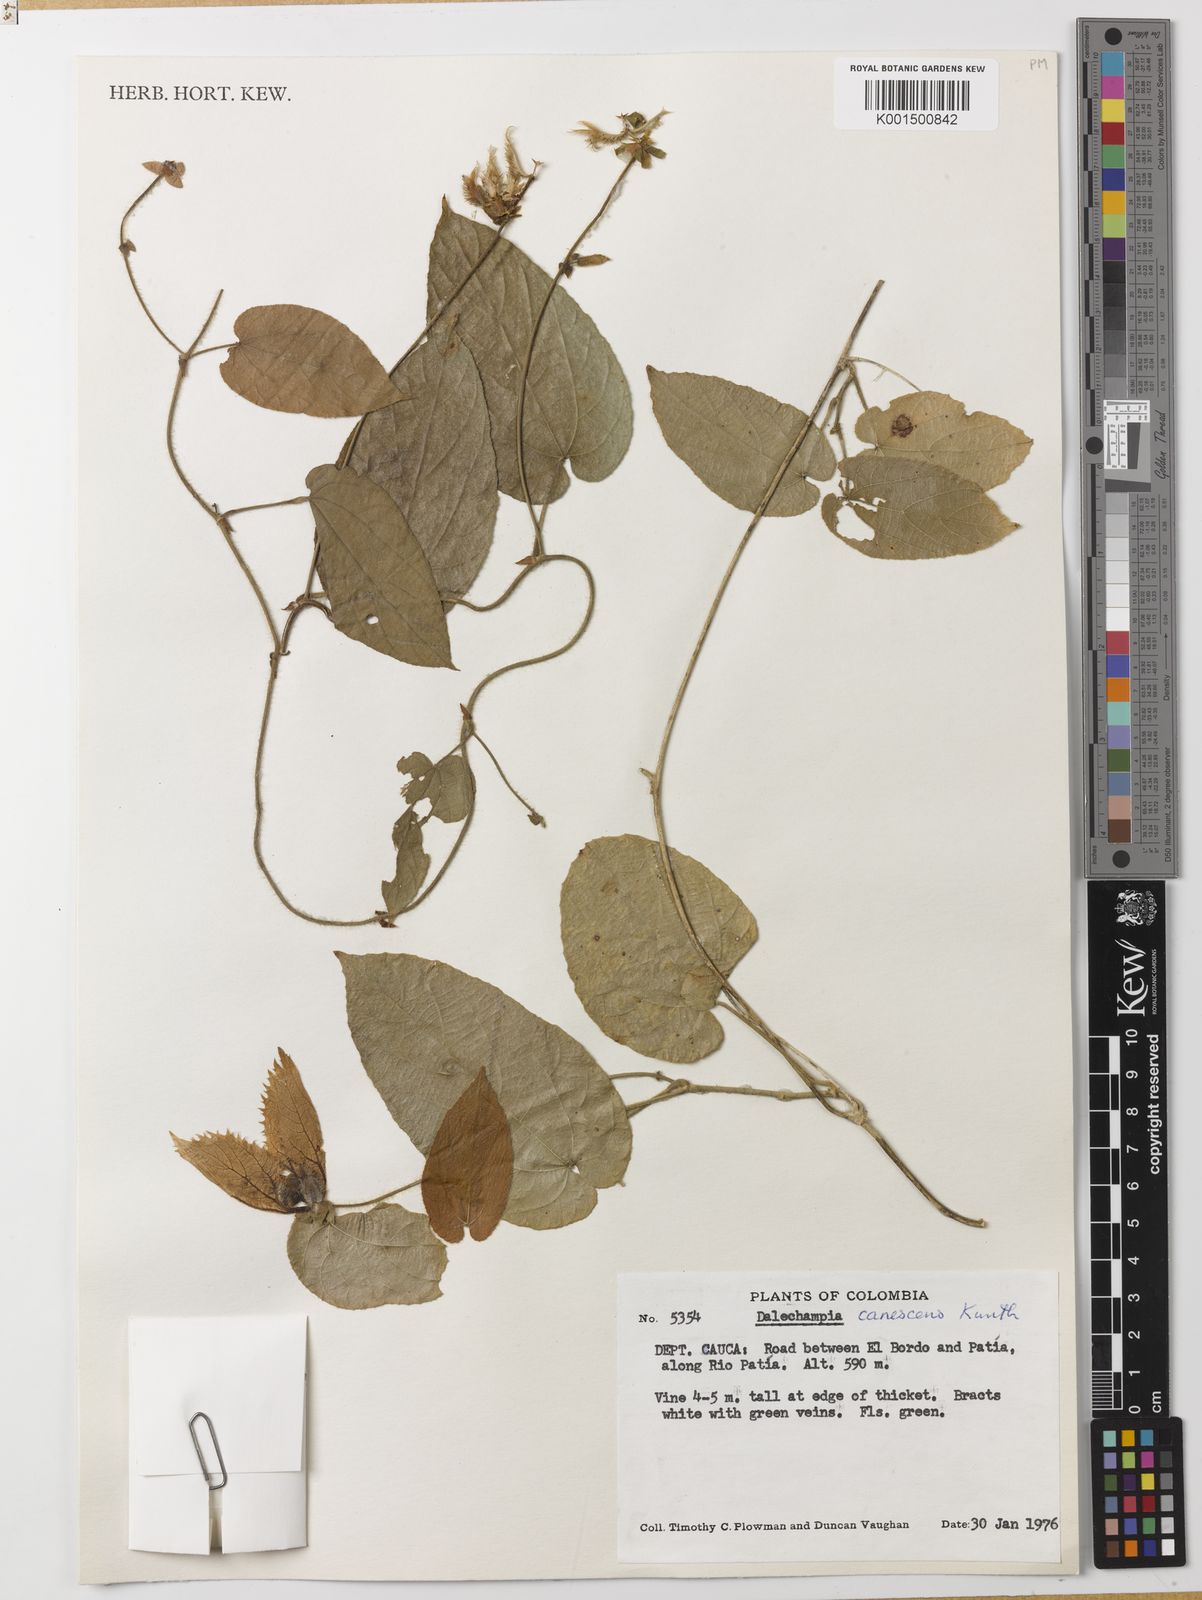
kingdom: Plantae
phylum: Tracheophyta
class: Magnoliopsida
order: Malpighiales
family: Euphorbiaceae
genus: Dalechampia
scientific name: Dalechampia canescens
